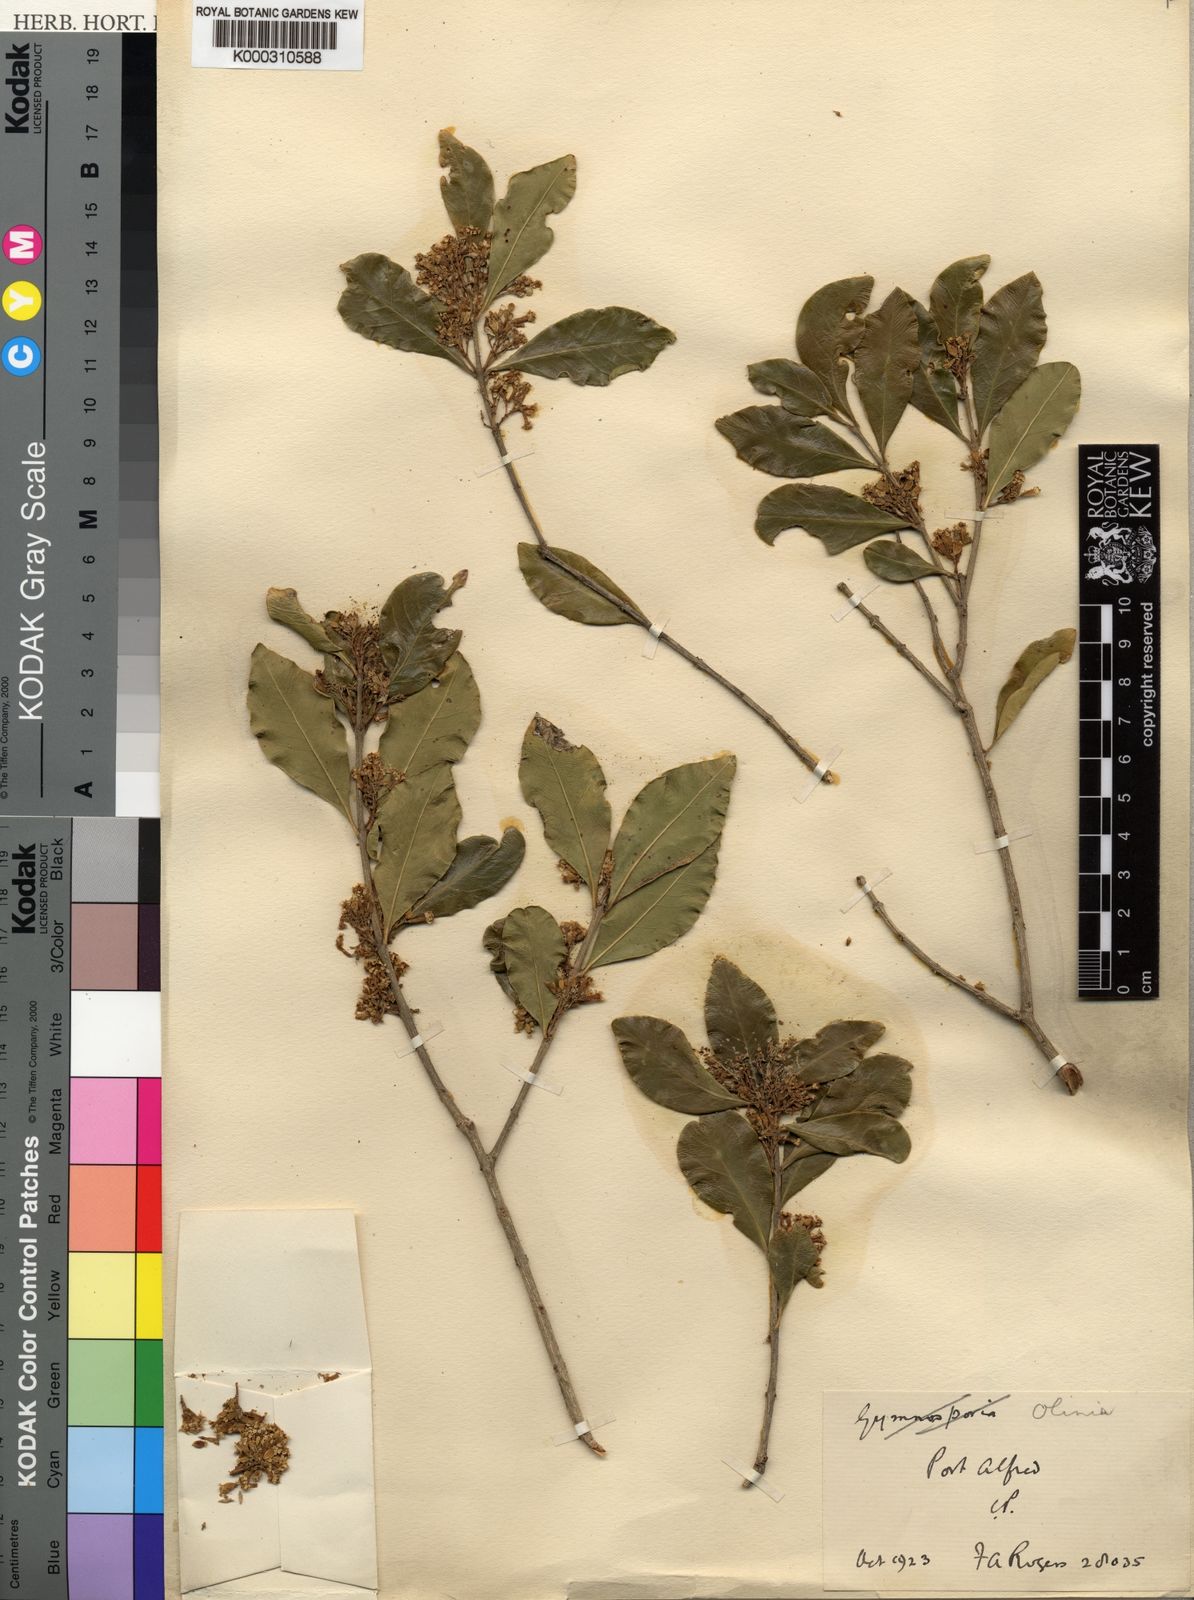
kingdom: Plantae
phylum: Tracheophyta
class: Magnoliopsida
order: Myrtales
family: Penaeaceae
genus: Olinia
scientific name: Olinia
